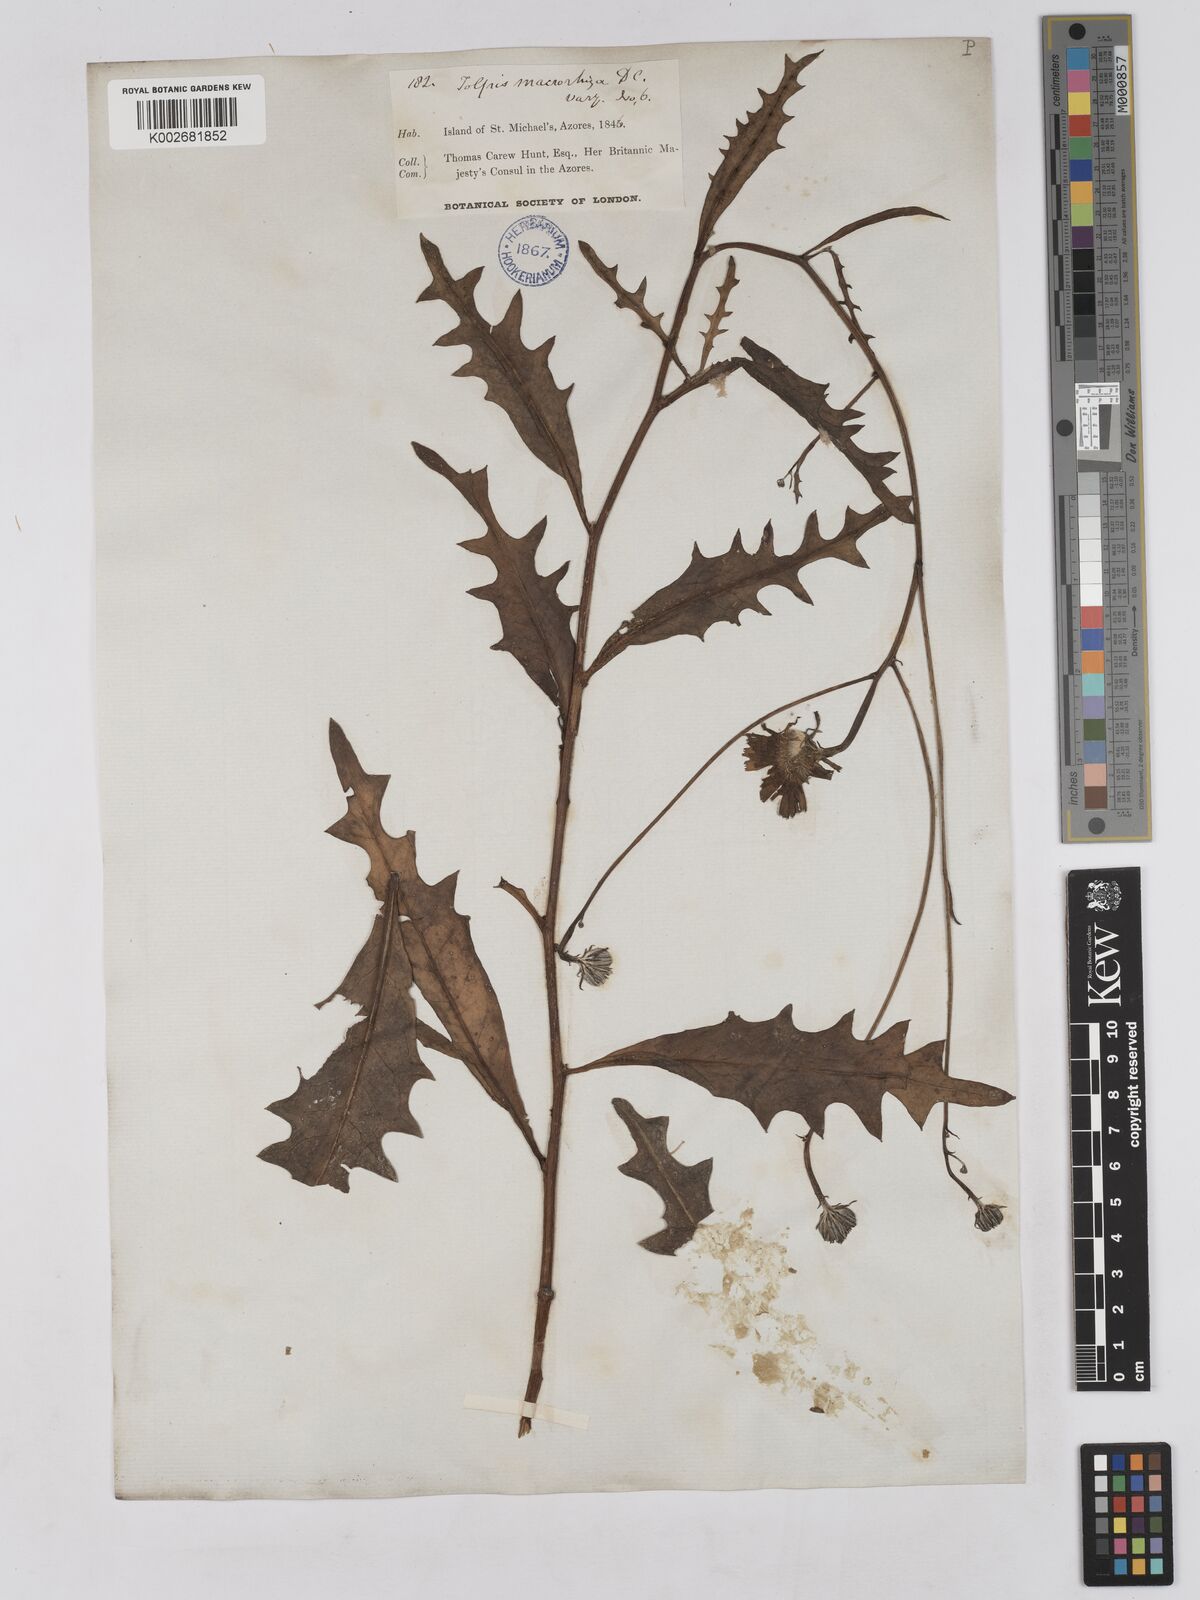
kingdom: Plantae
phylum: Tracheophyta
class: Magnoliopsida
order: Asterales
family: Asteraceae
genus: Tolpis
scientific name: Tolpis nobilis
